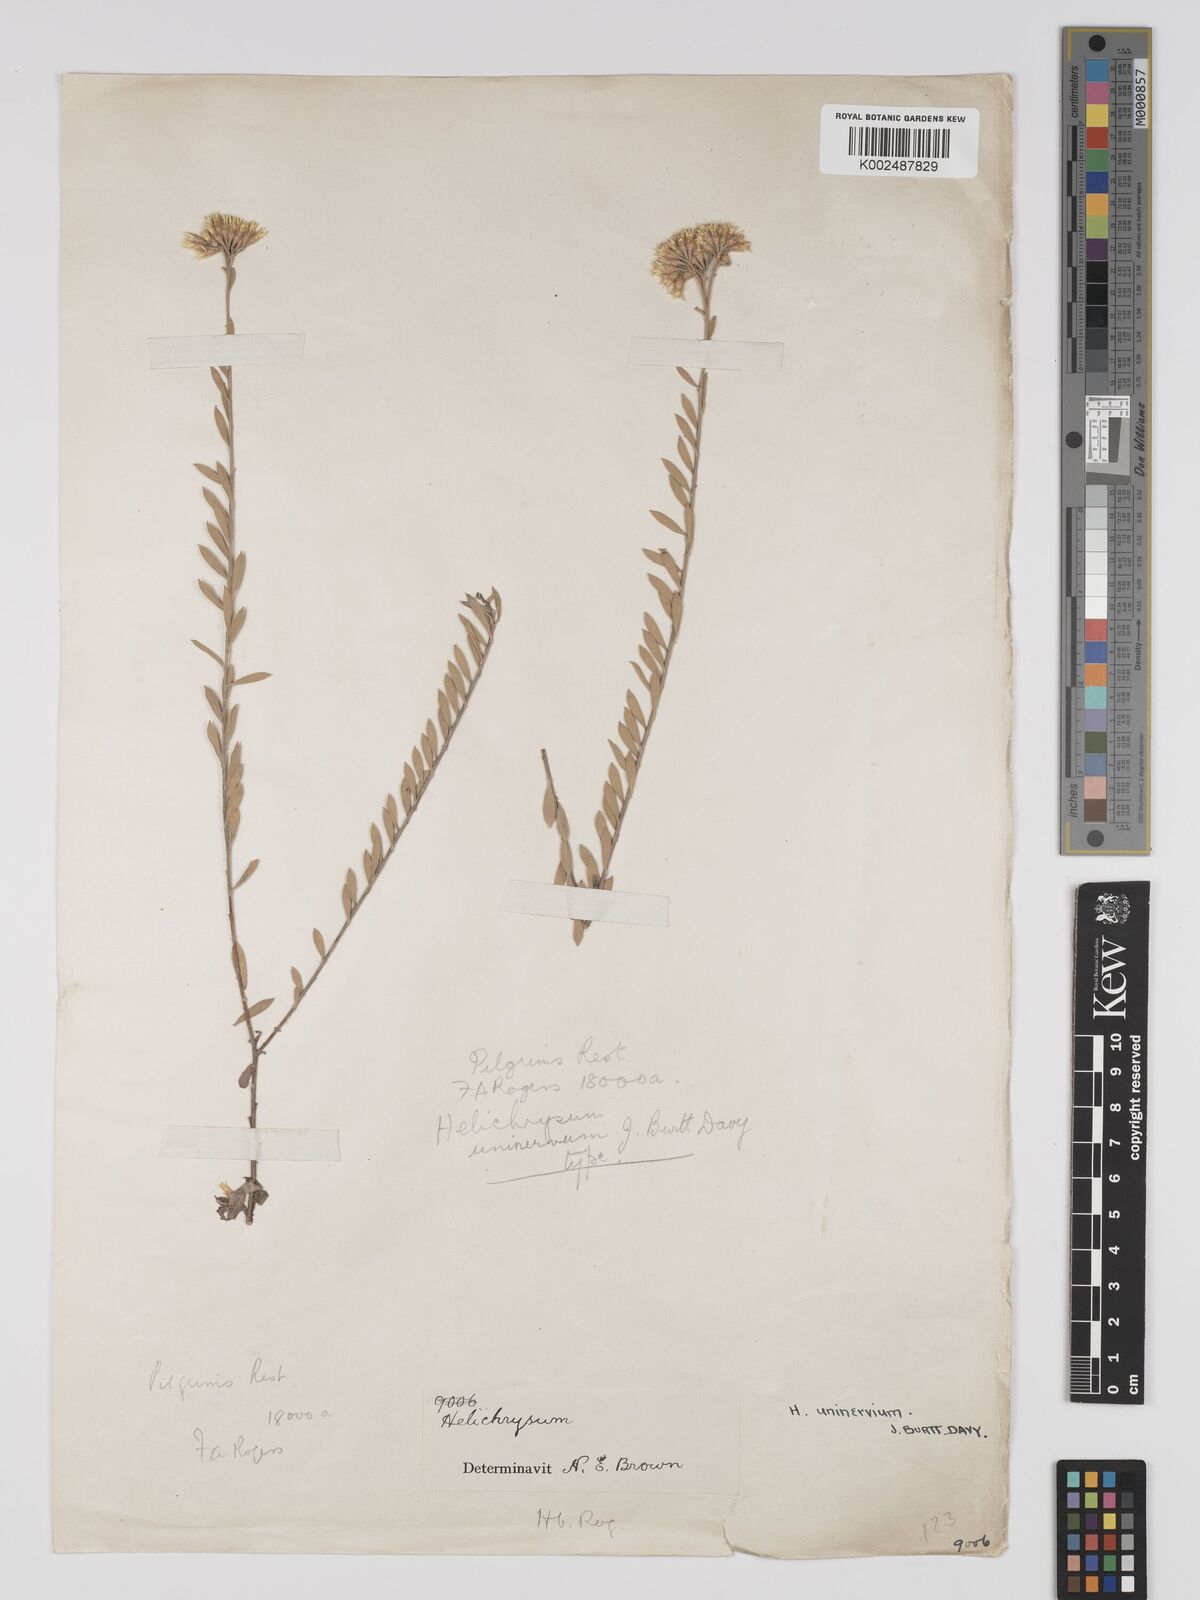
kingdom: Plantae
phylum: Tracheophyta
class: Magnoliopsida
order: Asterales
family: Asteraceae
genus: Helichrysum
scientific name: Helichrysum uninervium
